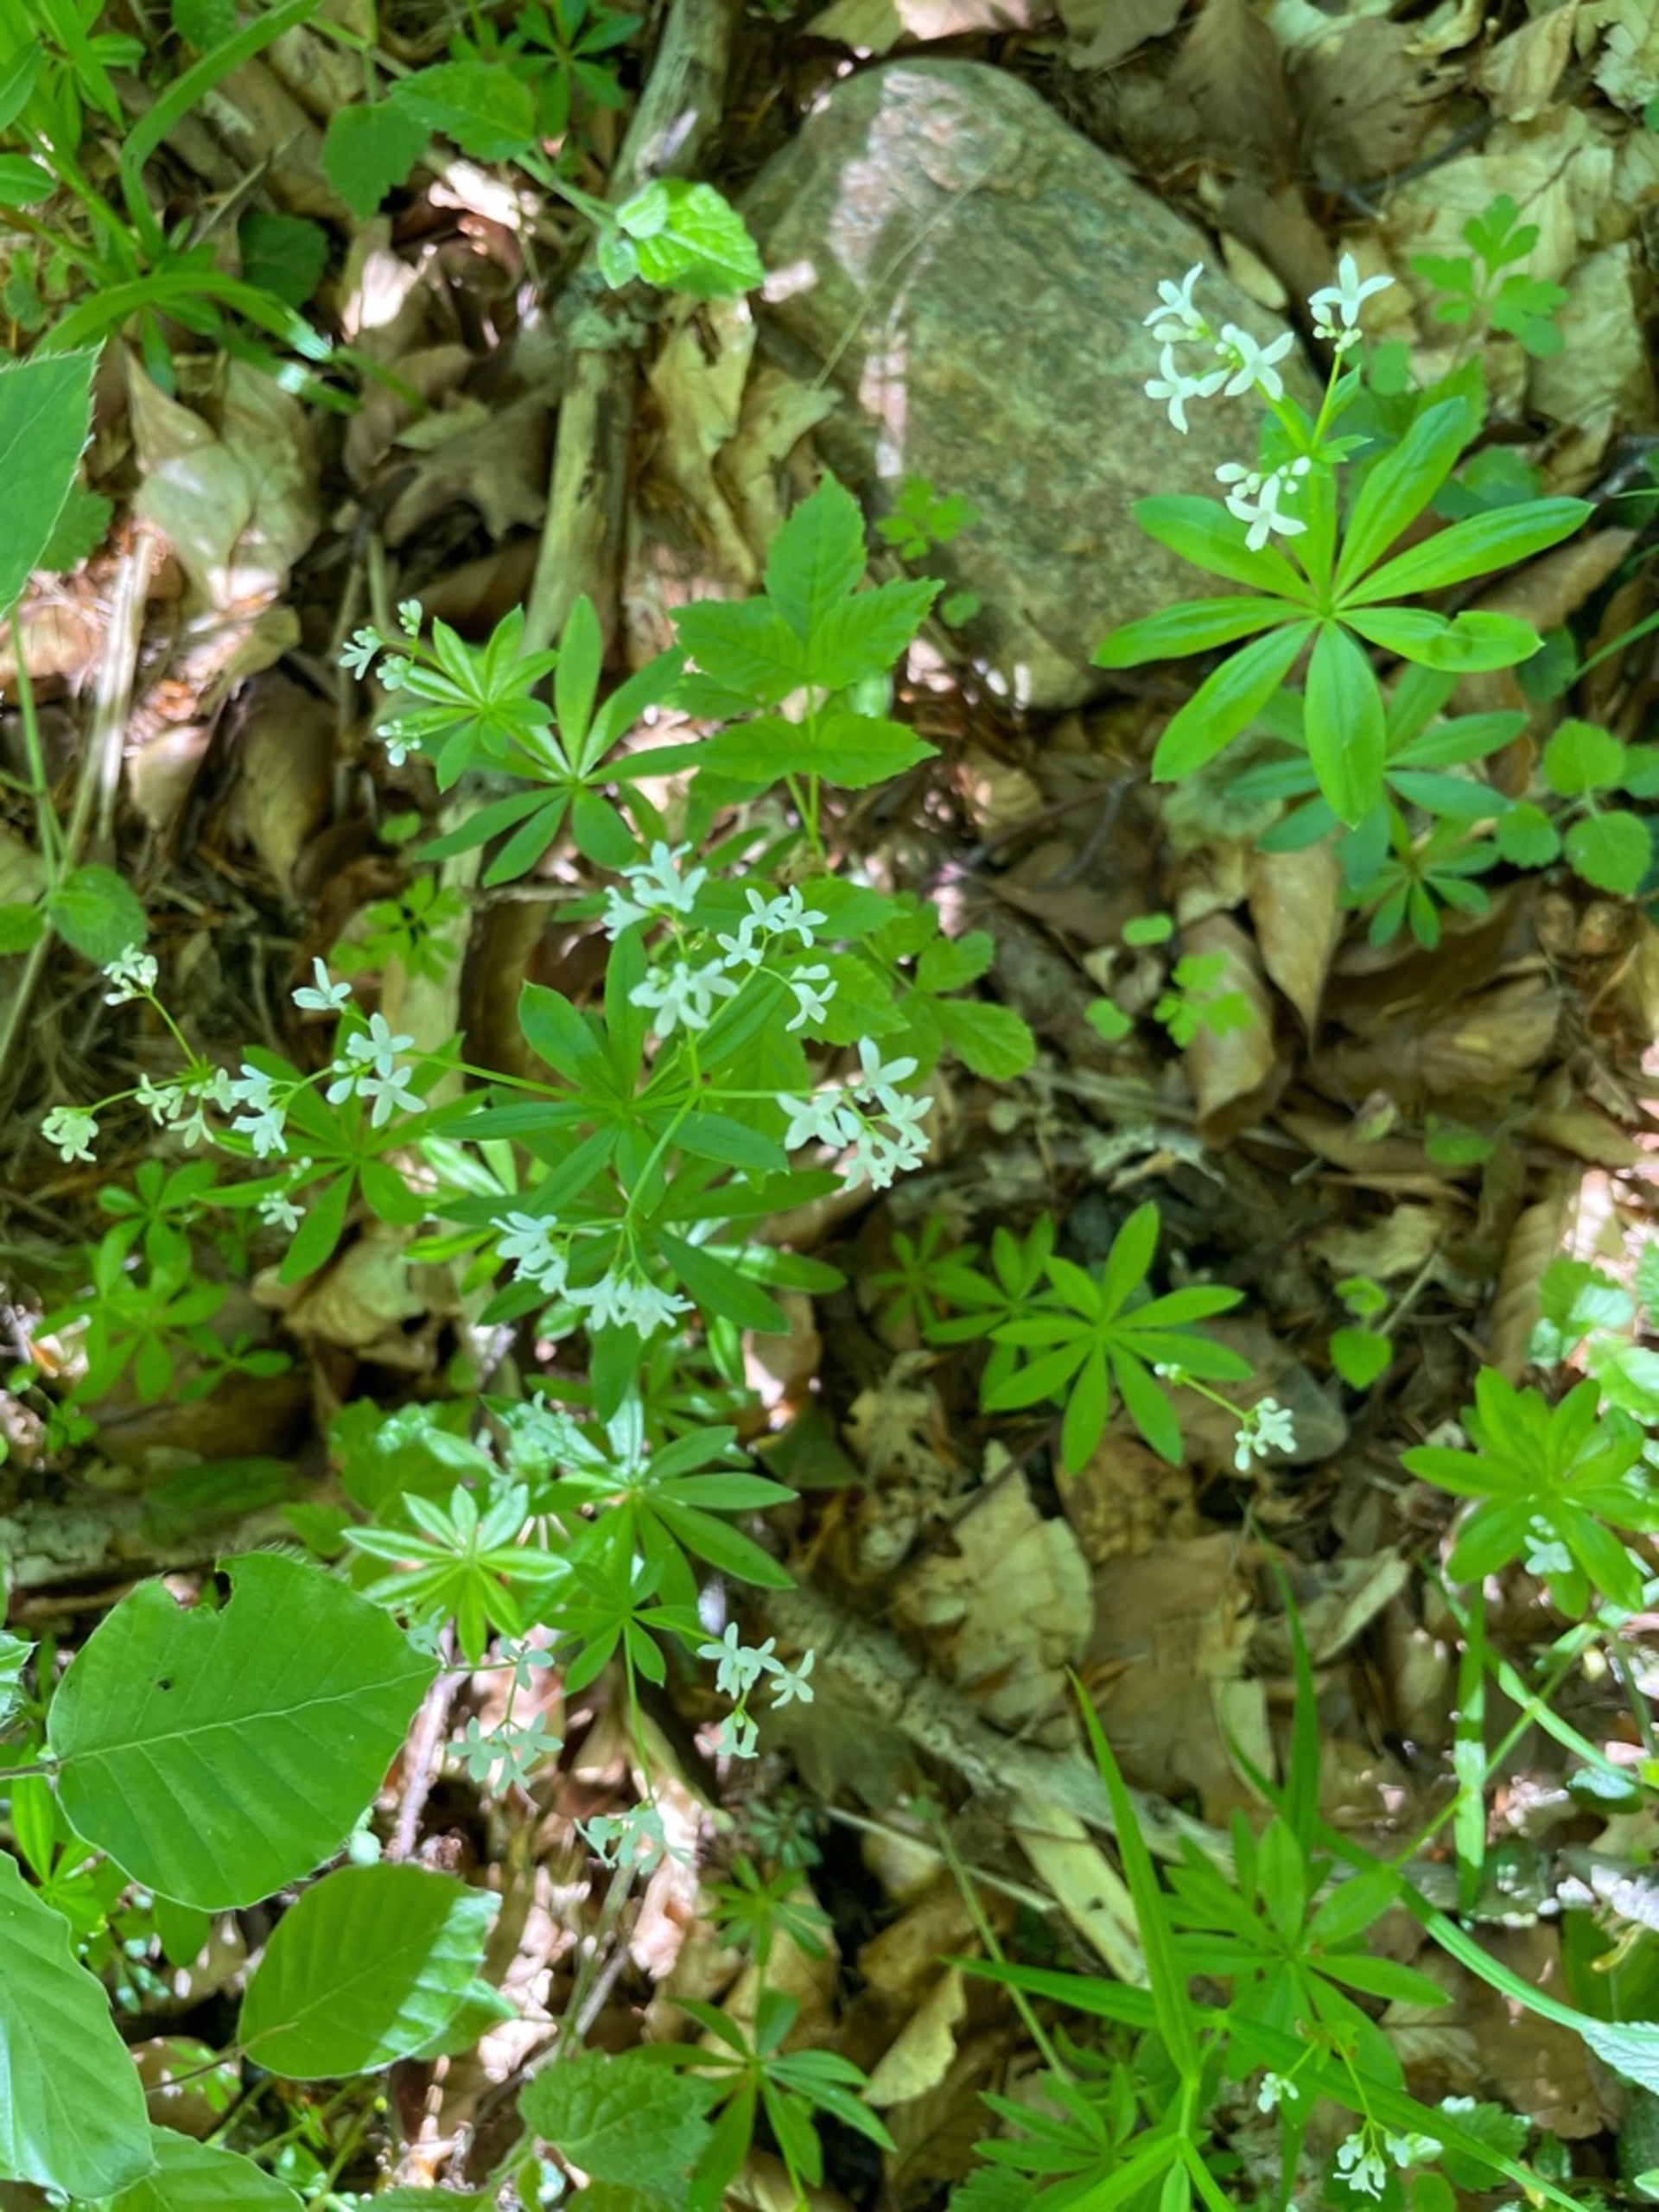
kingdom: Plantae
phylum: Tracheophyta
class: Magnoliopsida
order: Gentianales
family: Rubiaceae
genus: Galium
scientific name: Galium odoratum
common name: Skovmærke
